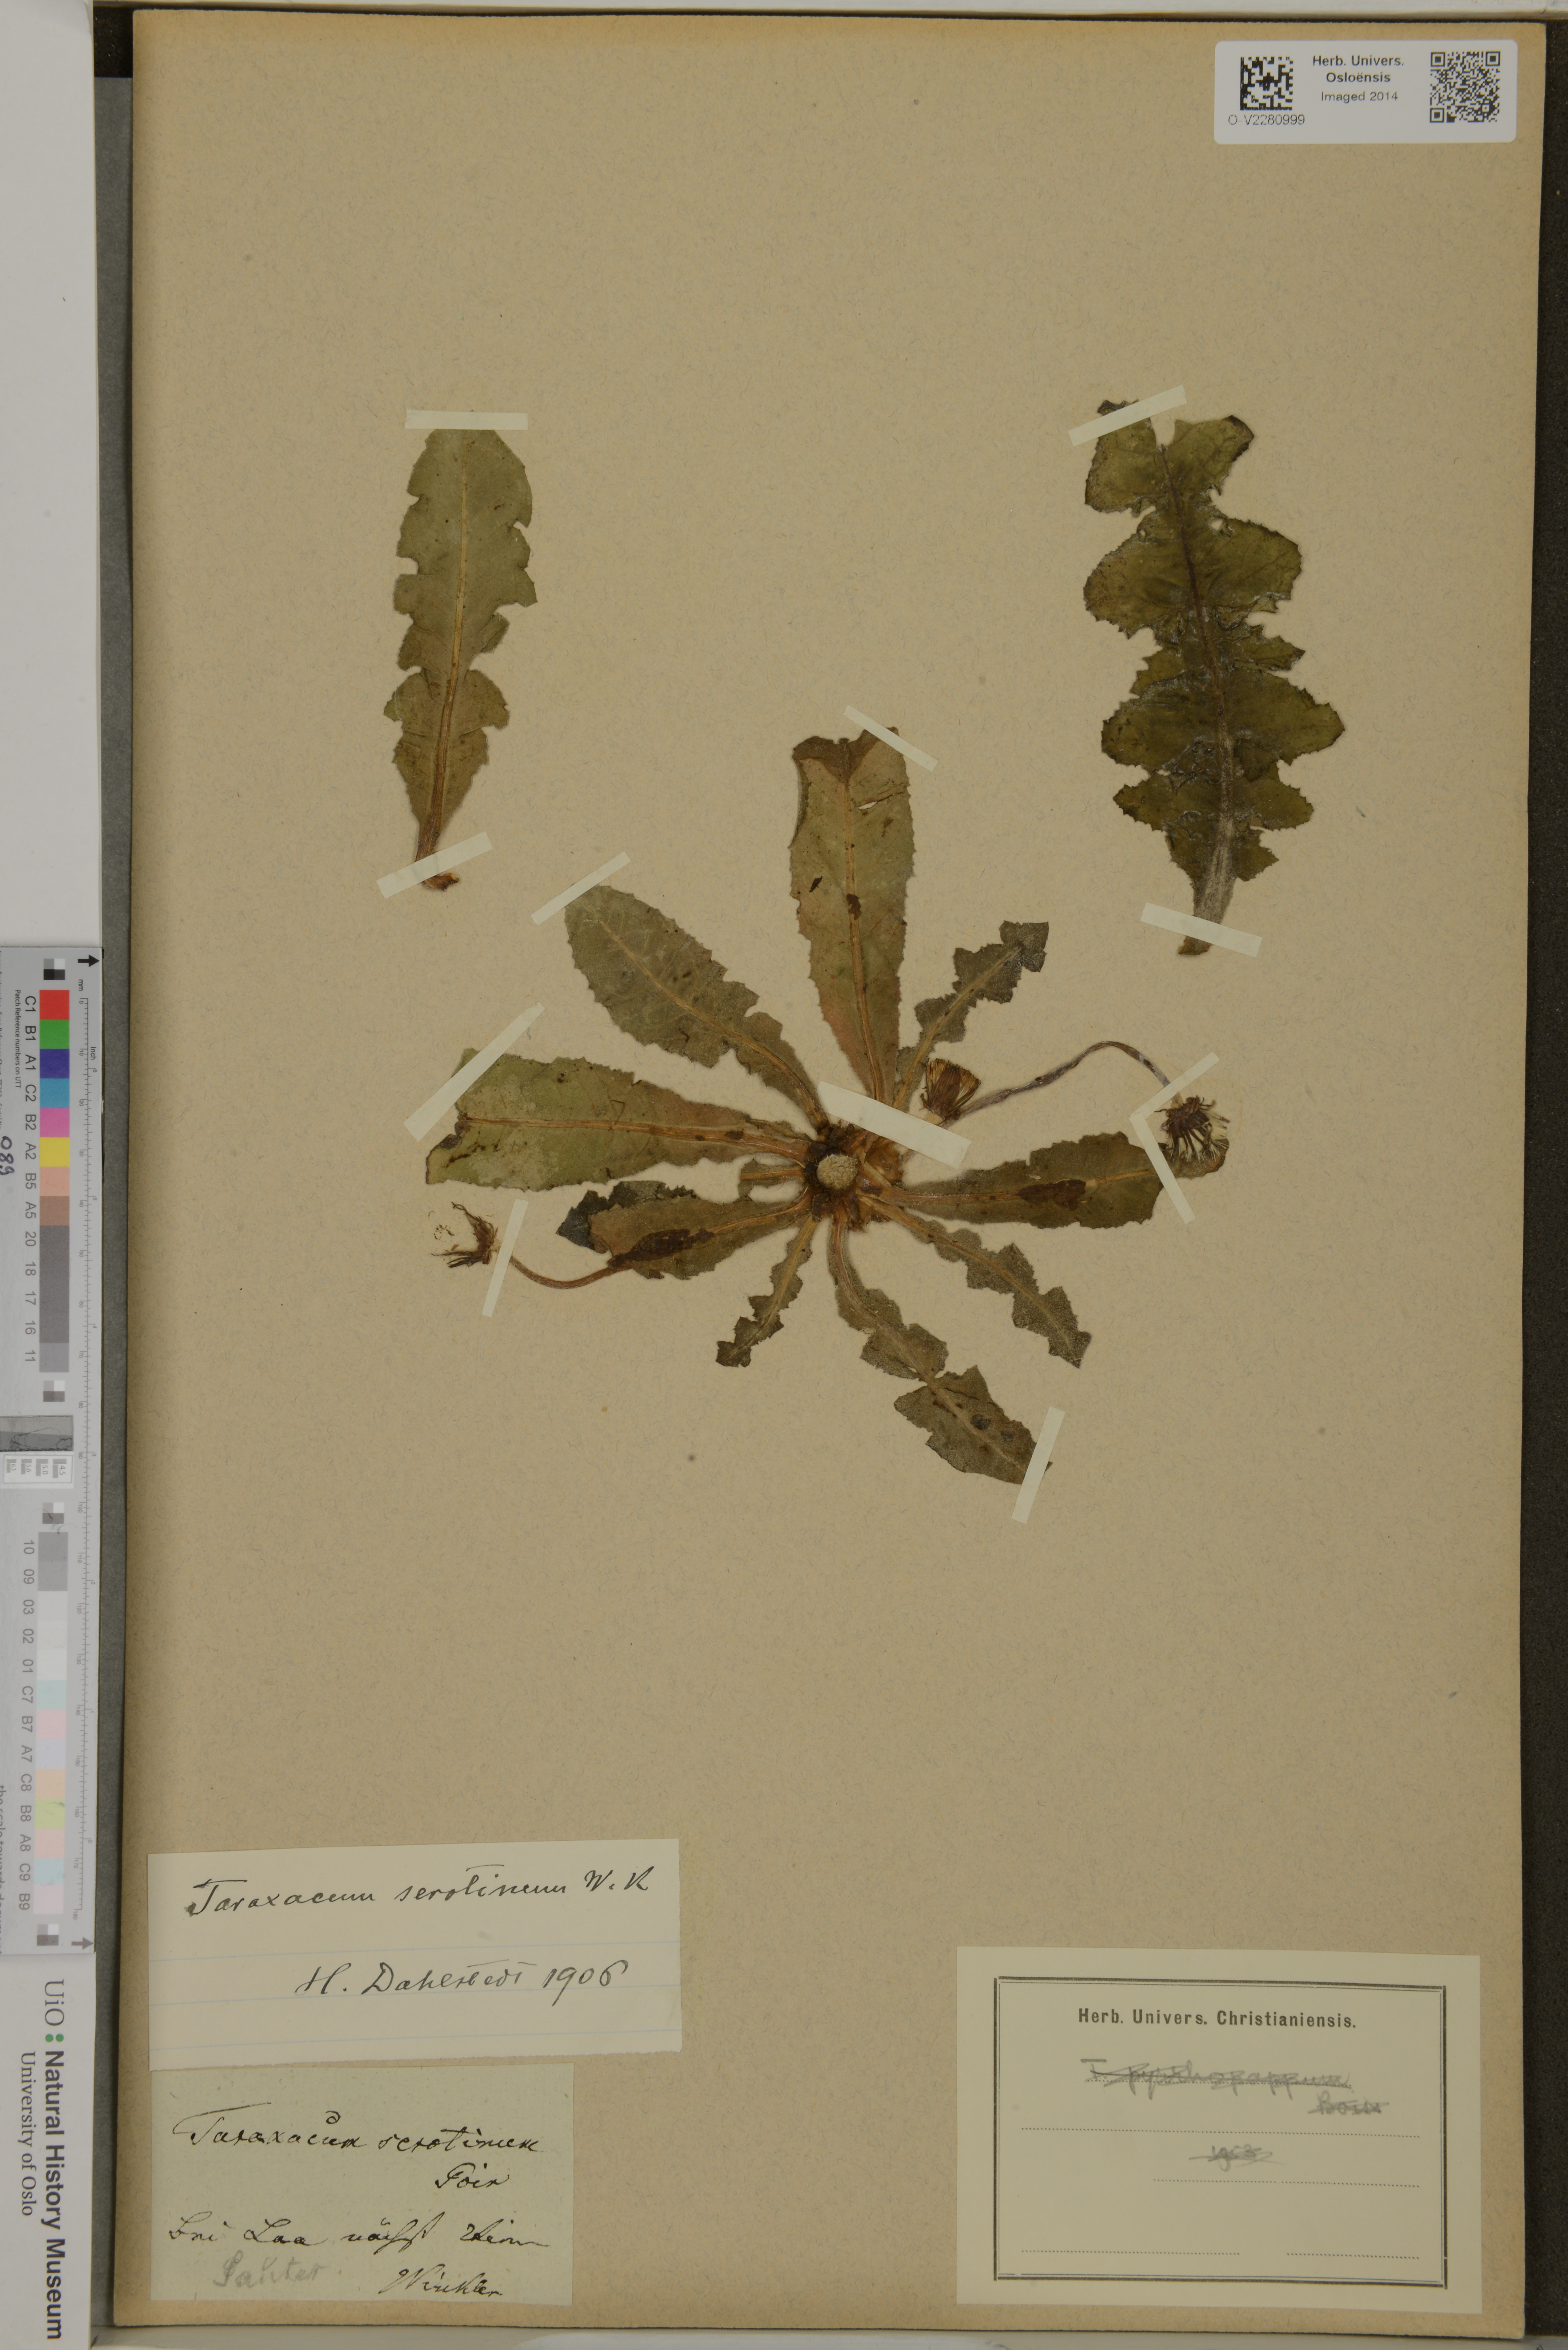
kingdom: Plantae
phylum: Tracheophyta
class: Magnoliopsida
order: Asterales
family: Asteraceae
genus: Taraxacum
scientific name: Taraxacum serotinum
